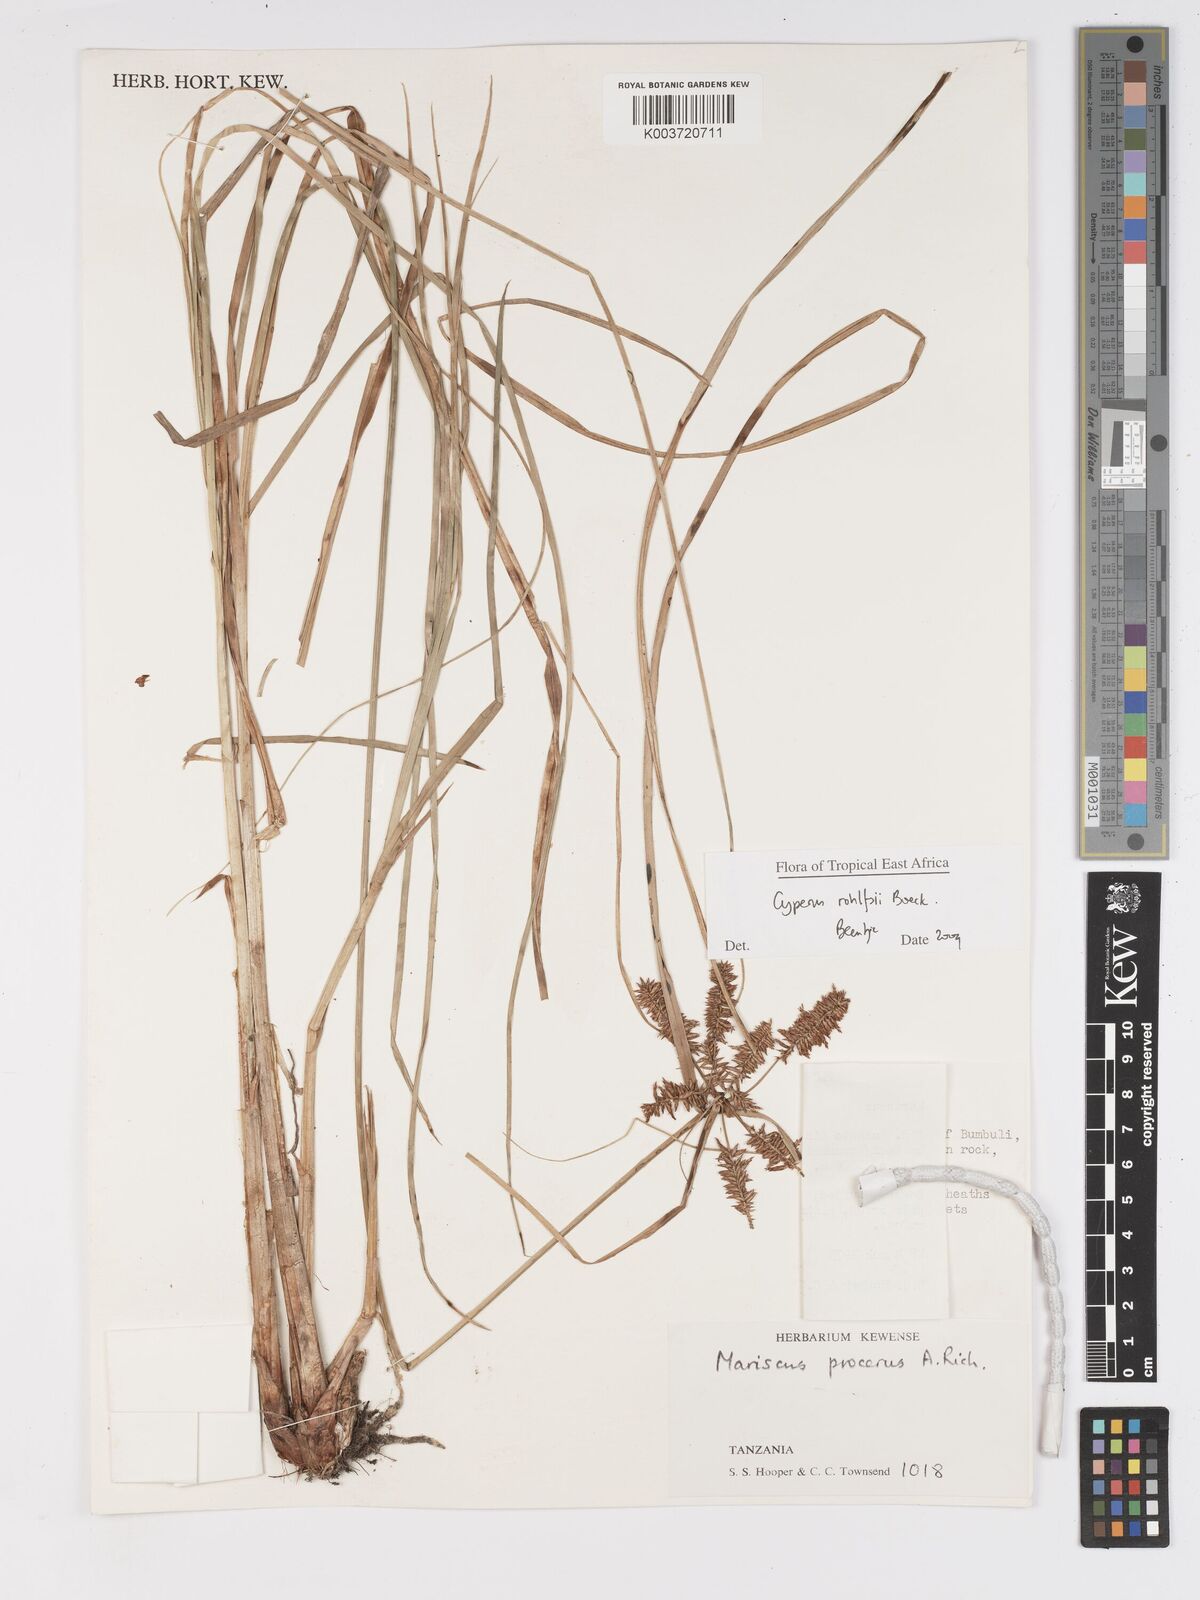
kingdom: Plantae
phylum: Tracheophyta
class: Liliopsida
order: Poales
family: Cyperaceae
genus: Cyperus
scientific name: Cyperus rohlfsii
